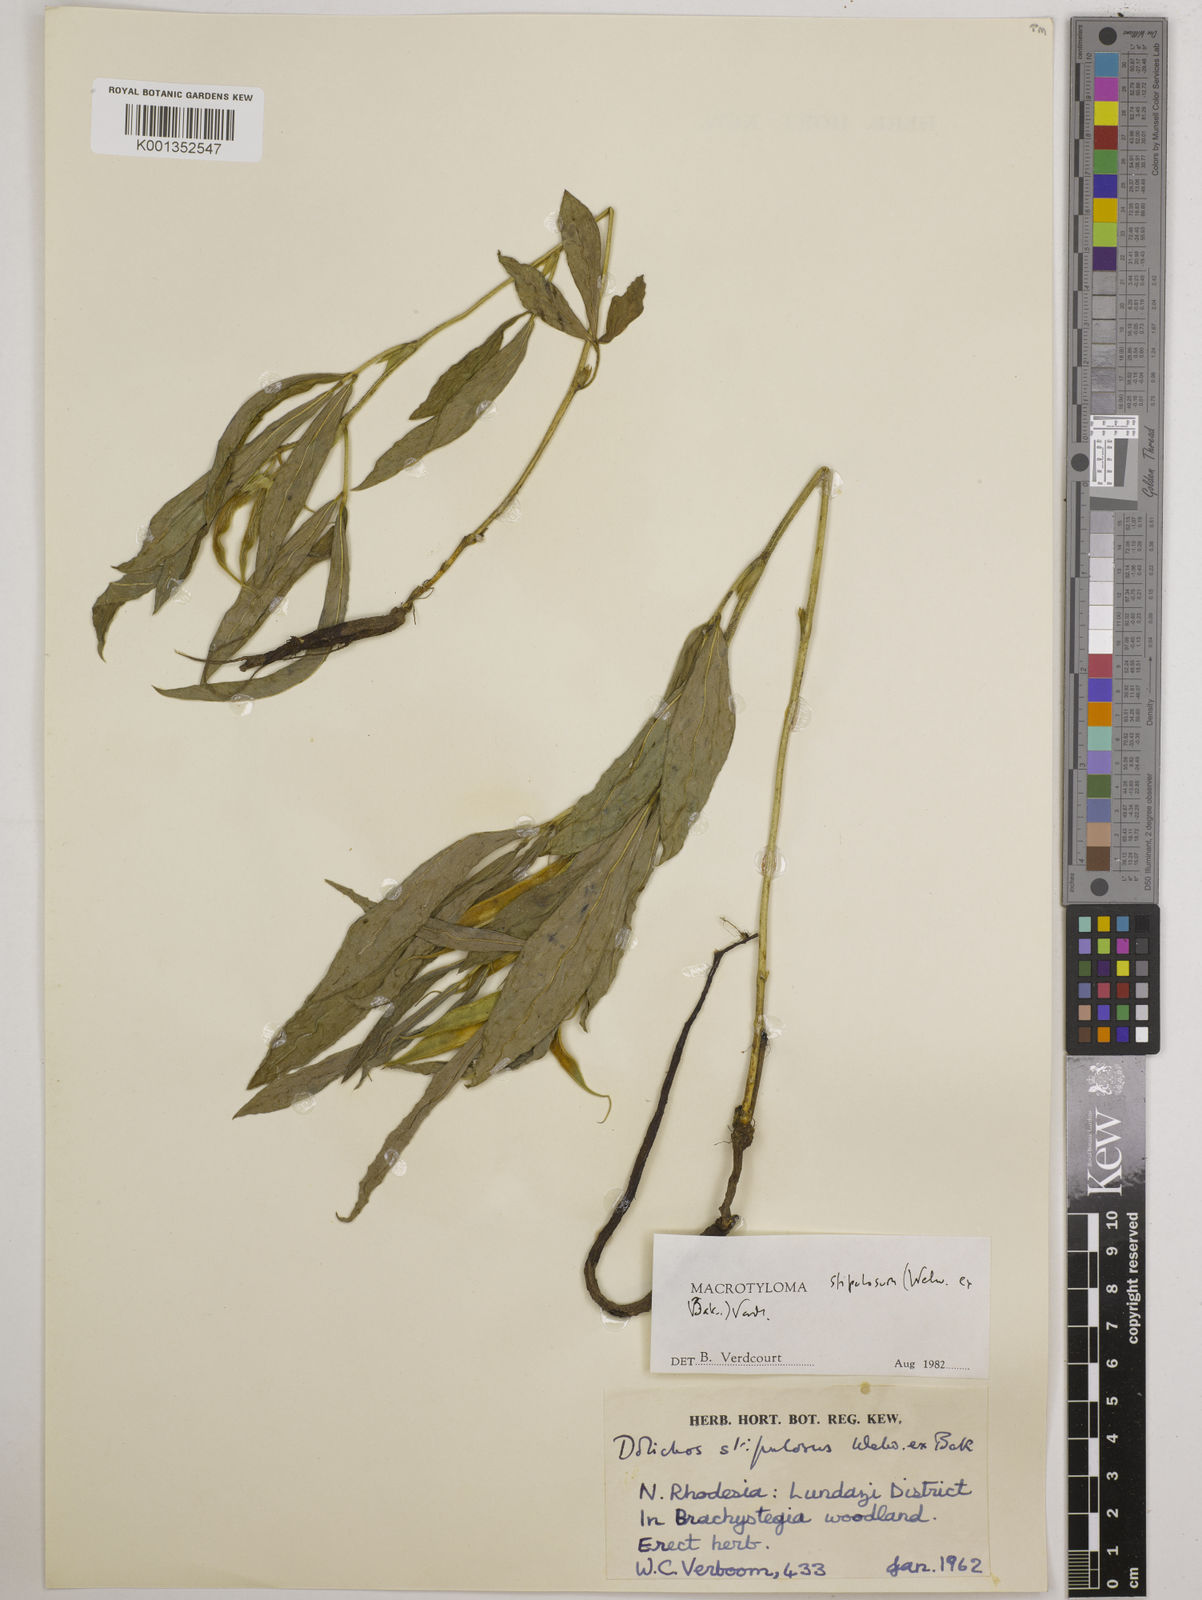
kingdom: Plantae
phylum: Tracheophyta
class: Magnoliopsida
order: Fabales
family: Fabaceae
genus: Macrotyloma
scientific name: Macrotyloma stipulosum
